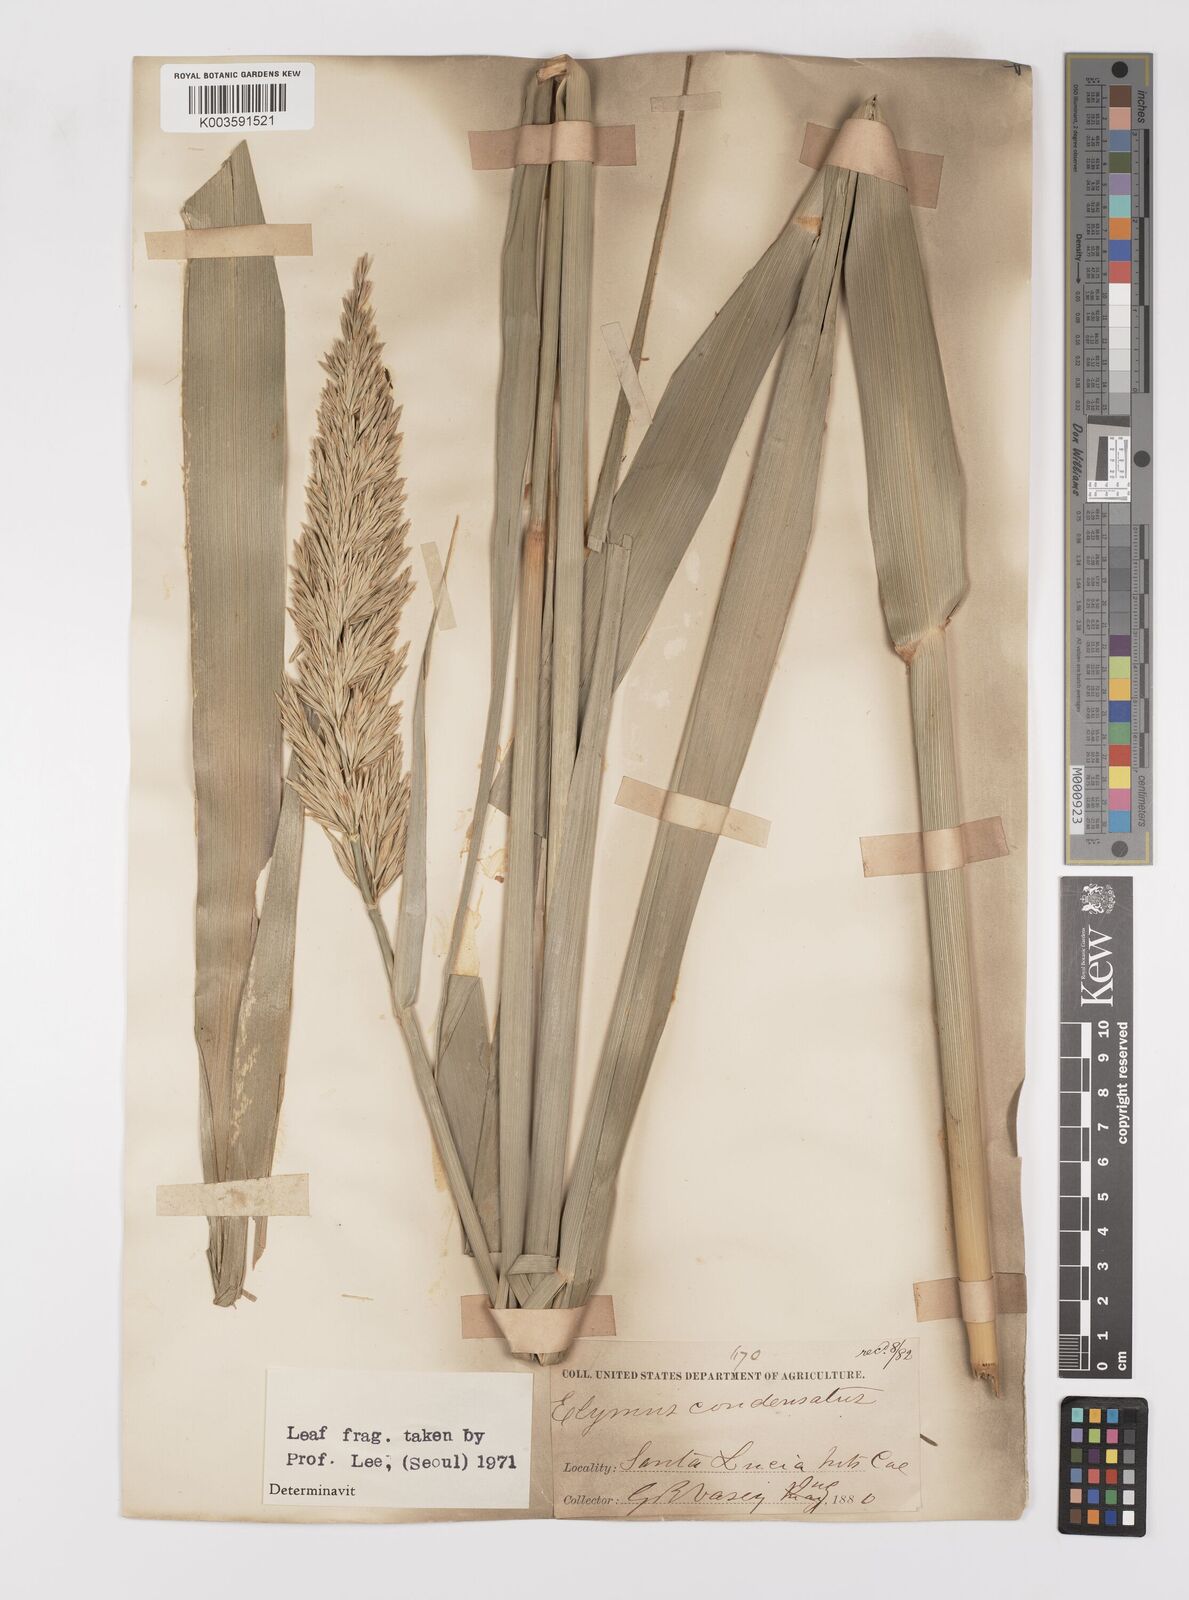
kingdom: Plantae
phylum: Tracheophyta
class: Liliopsida
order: Poales
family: Poaceae
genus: Leymus
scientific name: Leymus condensatus
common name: Giant wild rye
